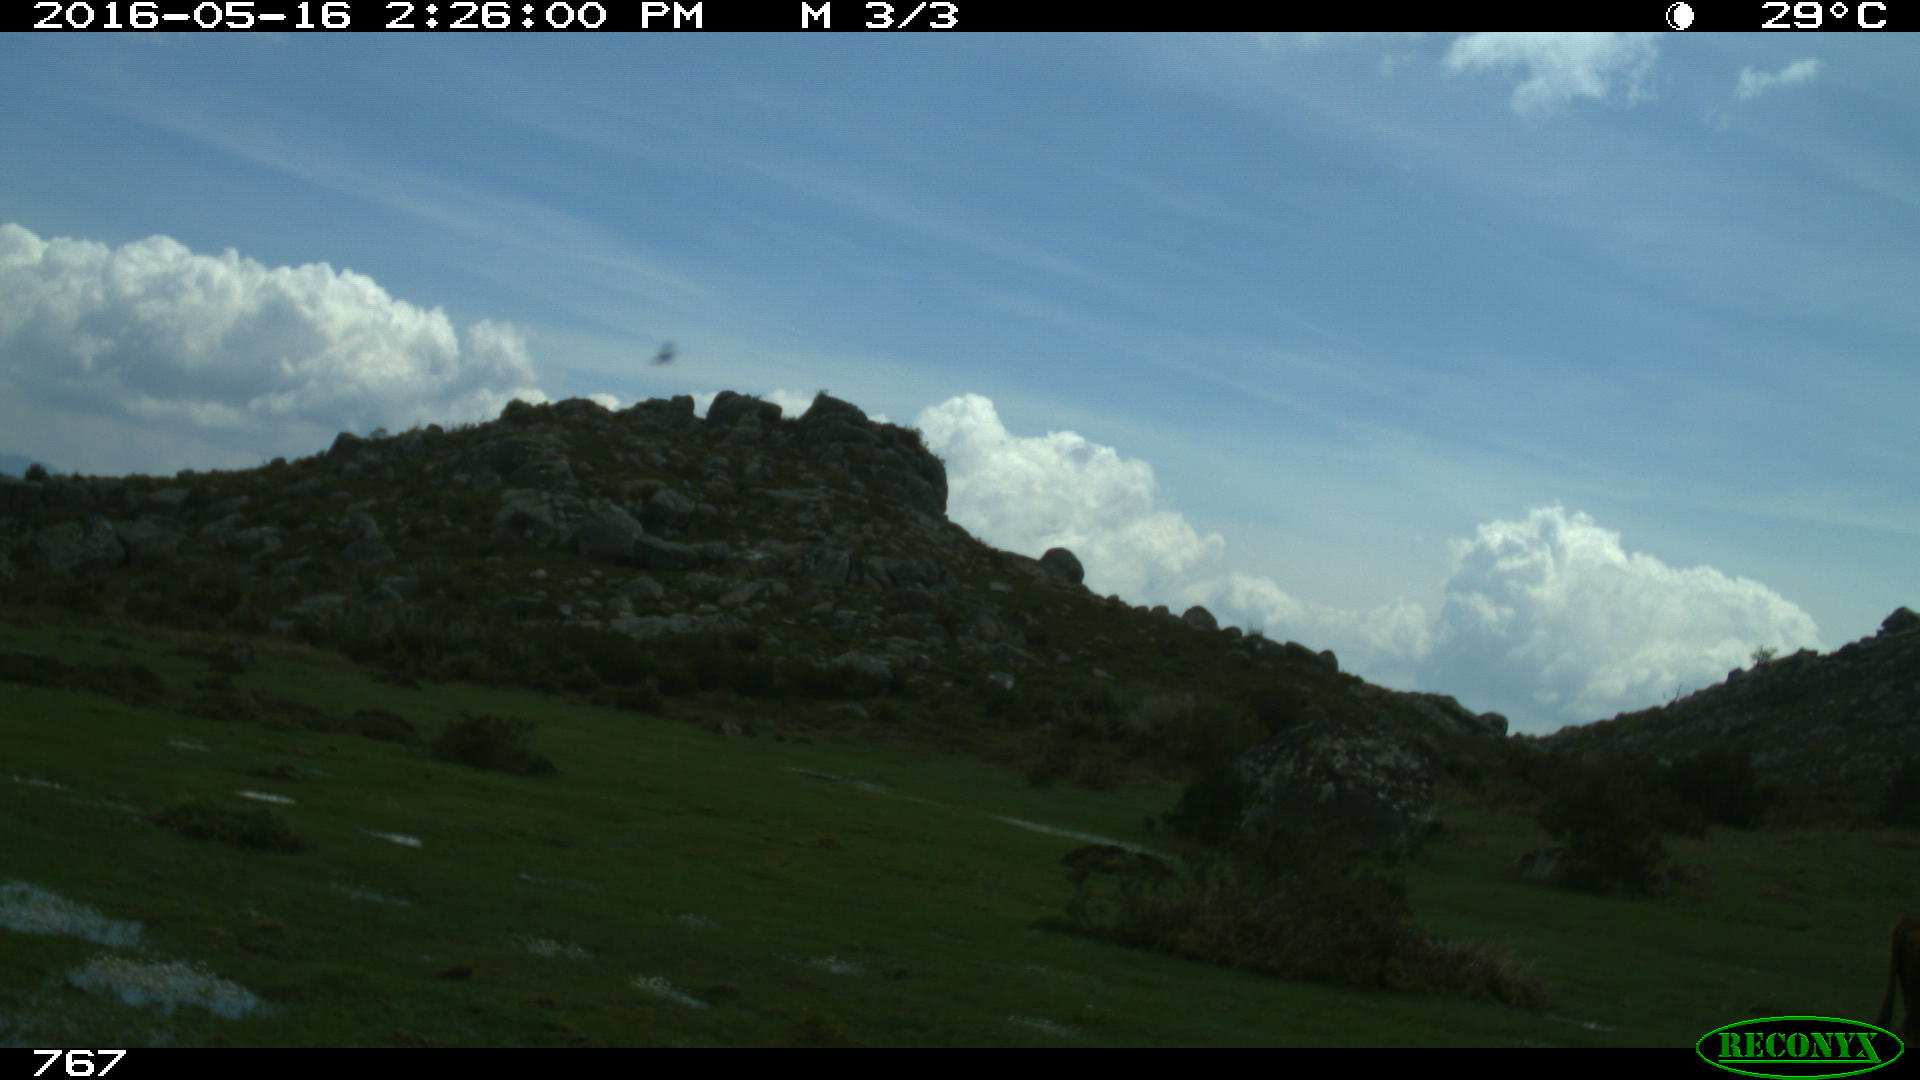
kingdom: Animalia
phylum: Chordata
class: Mammalia
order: Artiodactyla
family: Bovidae
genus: Bos
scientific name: Bos taurus
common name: Domesticated cattle
